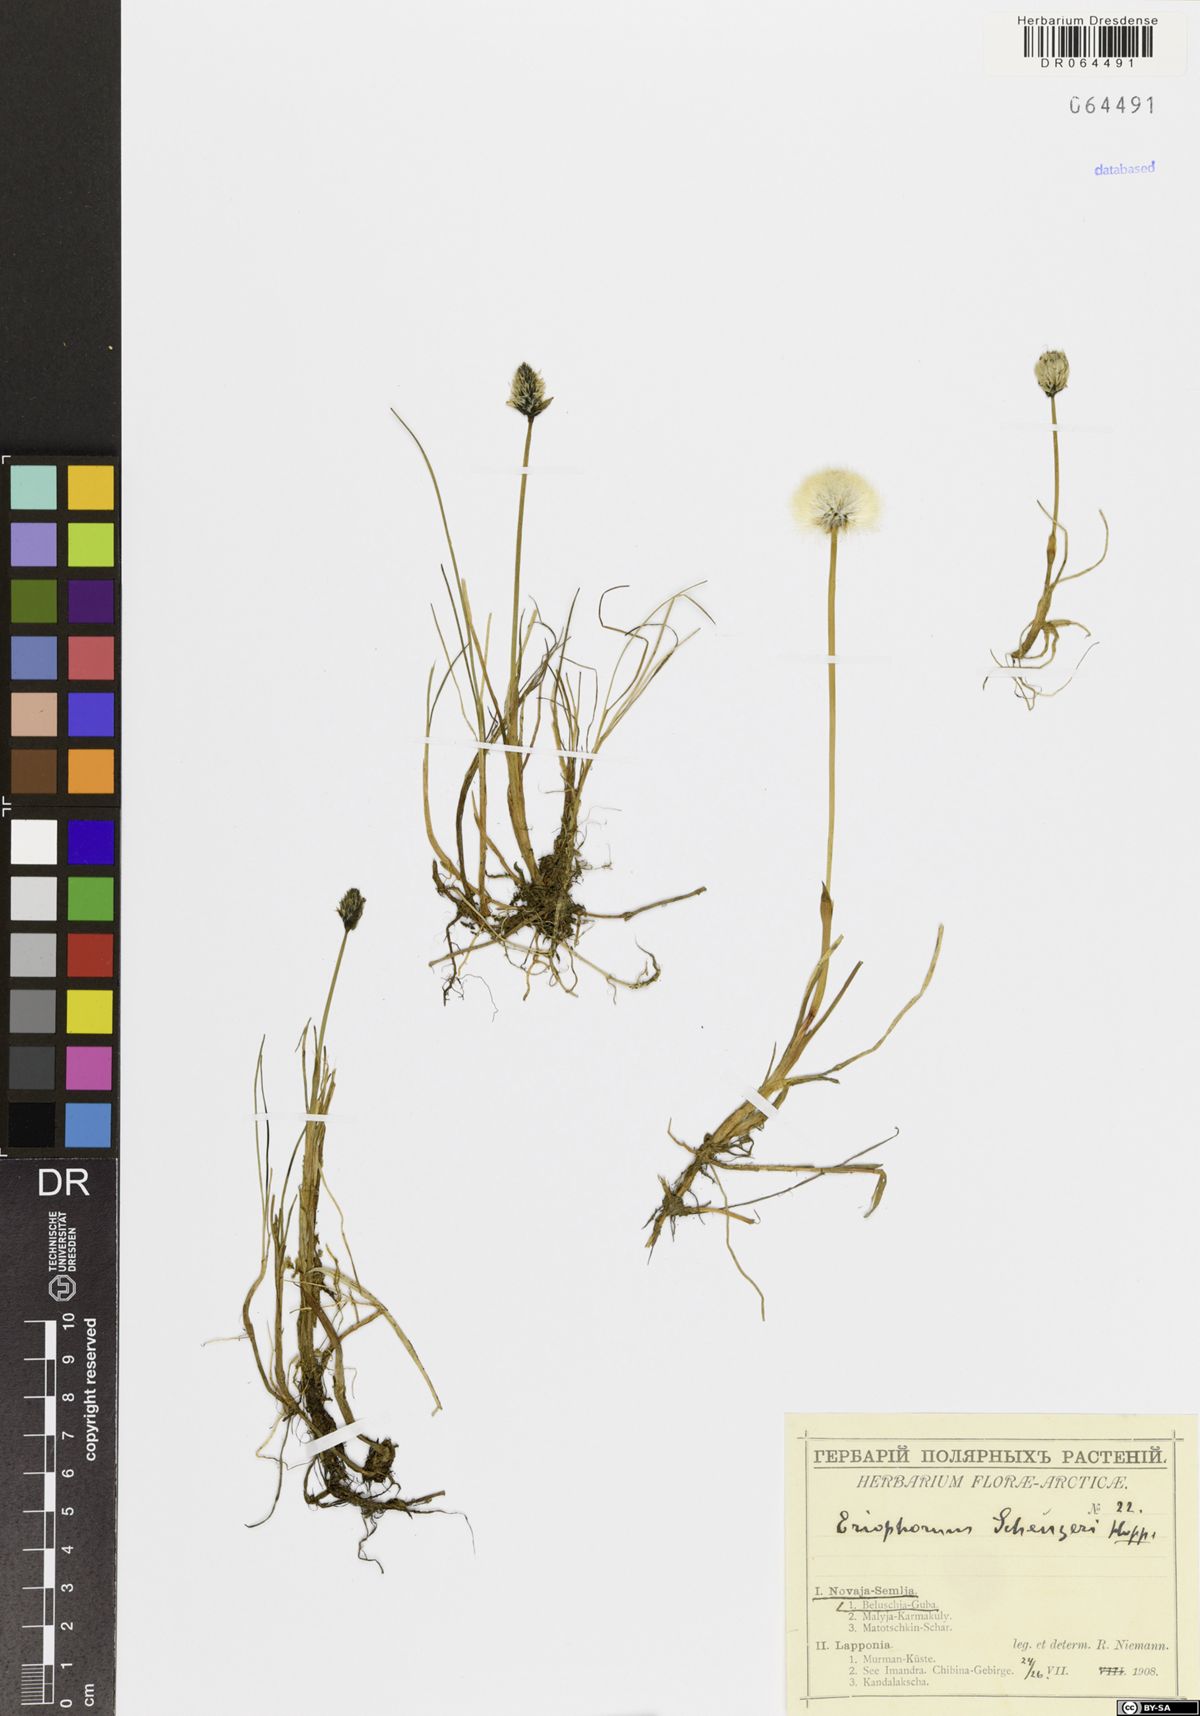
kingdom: Plantae
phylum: Tracheophyta
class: Liliopsida
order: Poales
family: Cyperaceae
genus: Eriophorum
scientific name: Eriophorum scheuchzeri
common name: Scheuchzer's cottongrass
